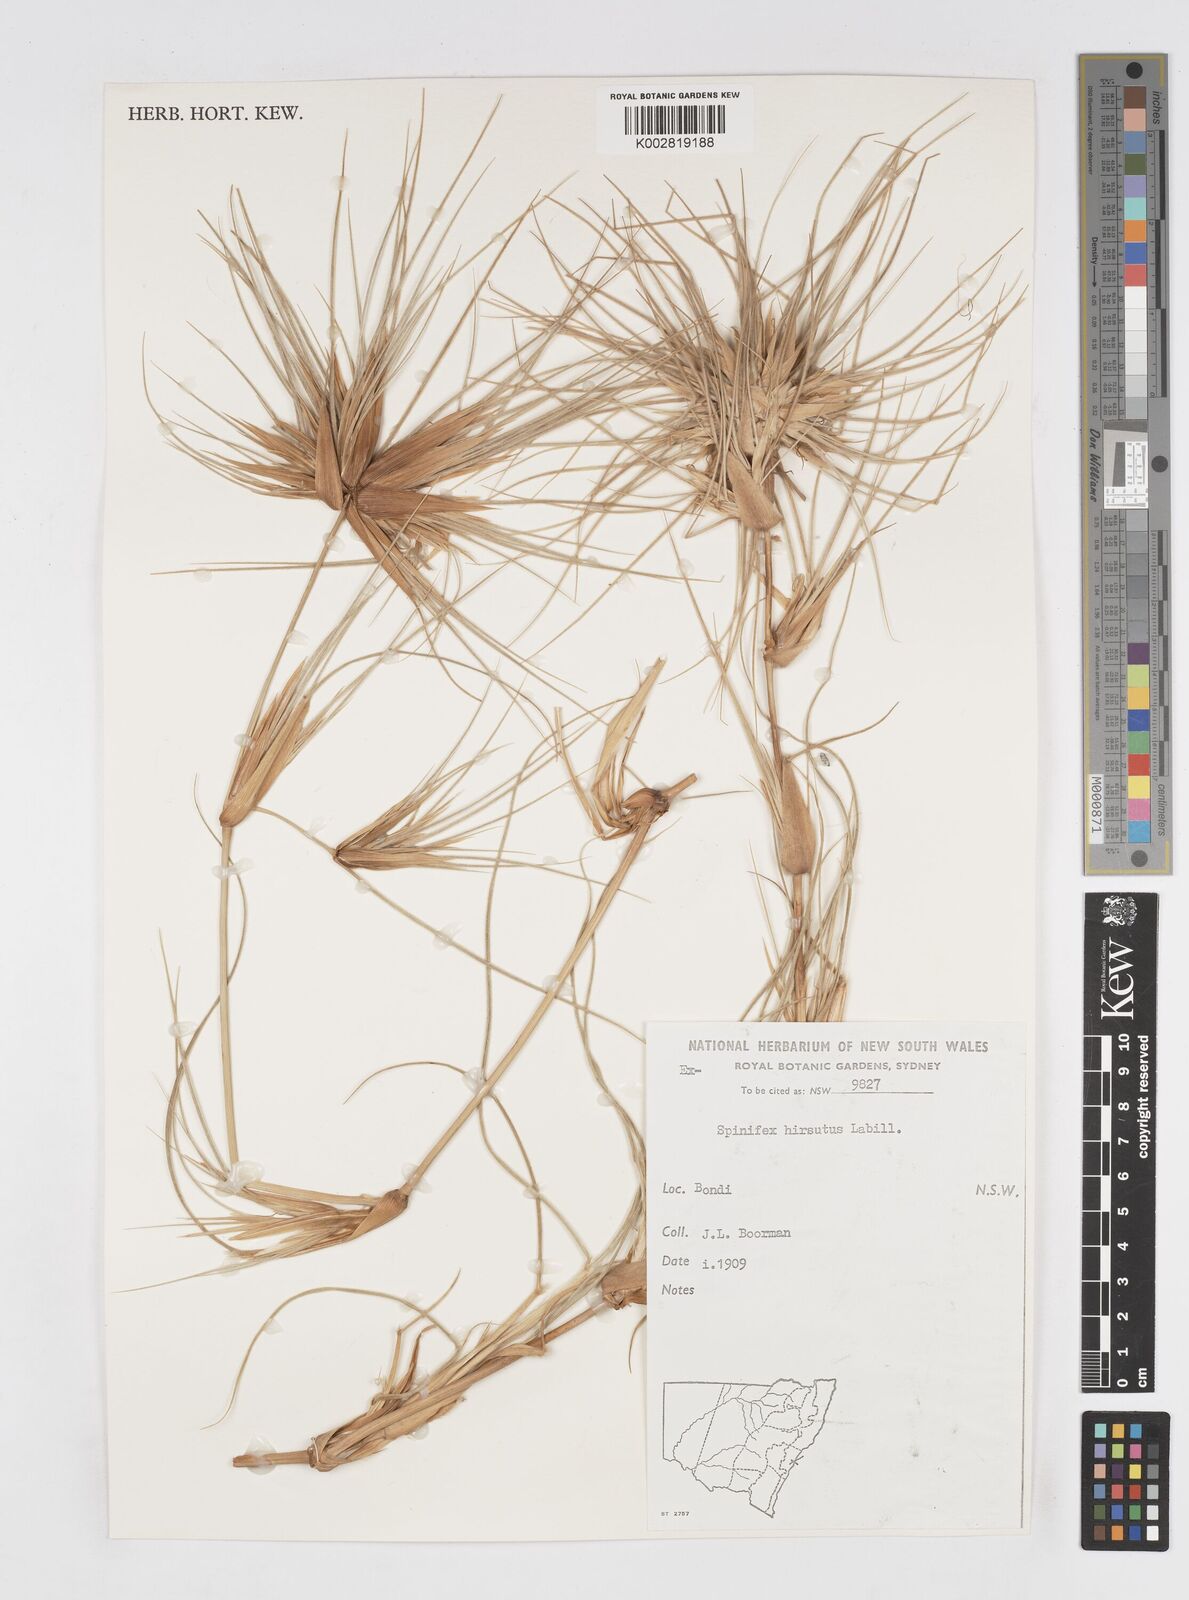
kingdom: Plantae
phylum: Tracheophyta
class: Liliopsida
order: Poales
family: Poaceae
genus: Spinifex
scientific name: Spinifex sericeus
